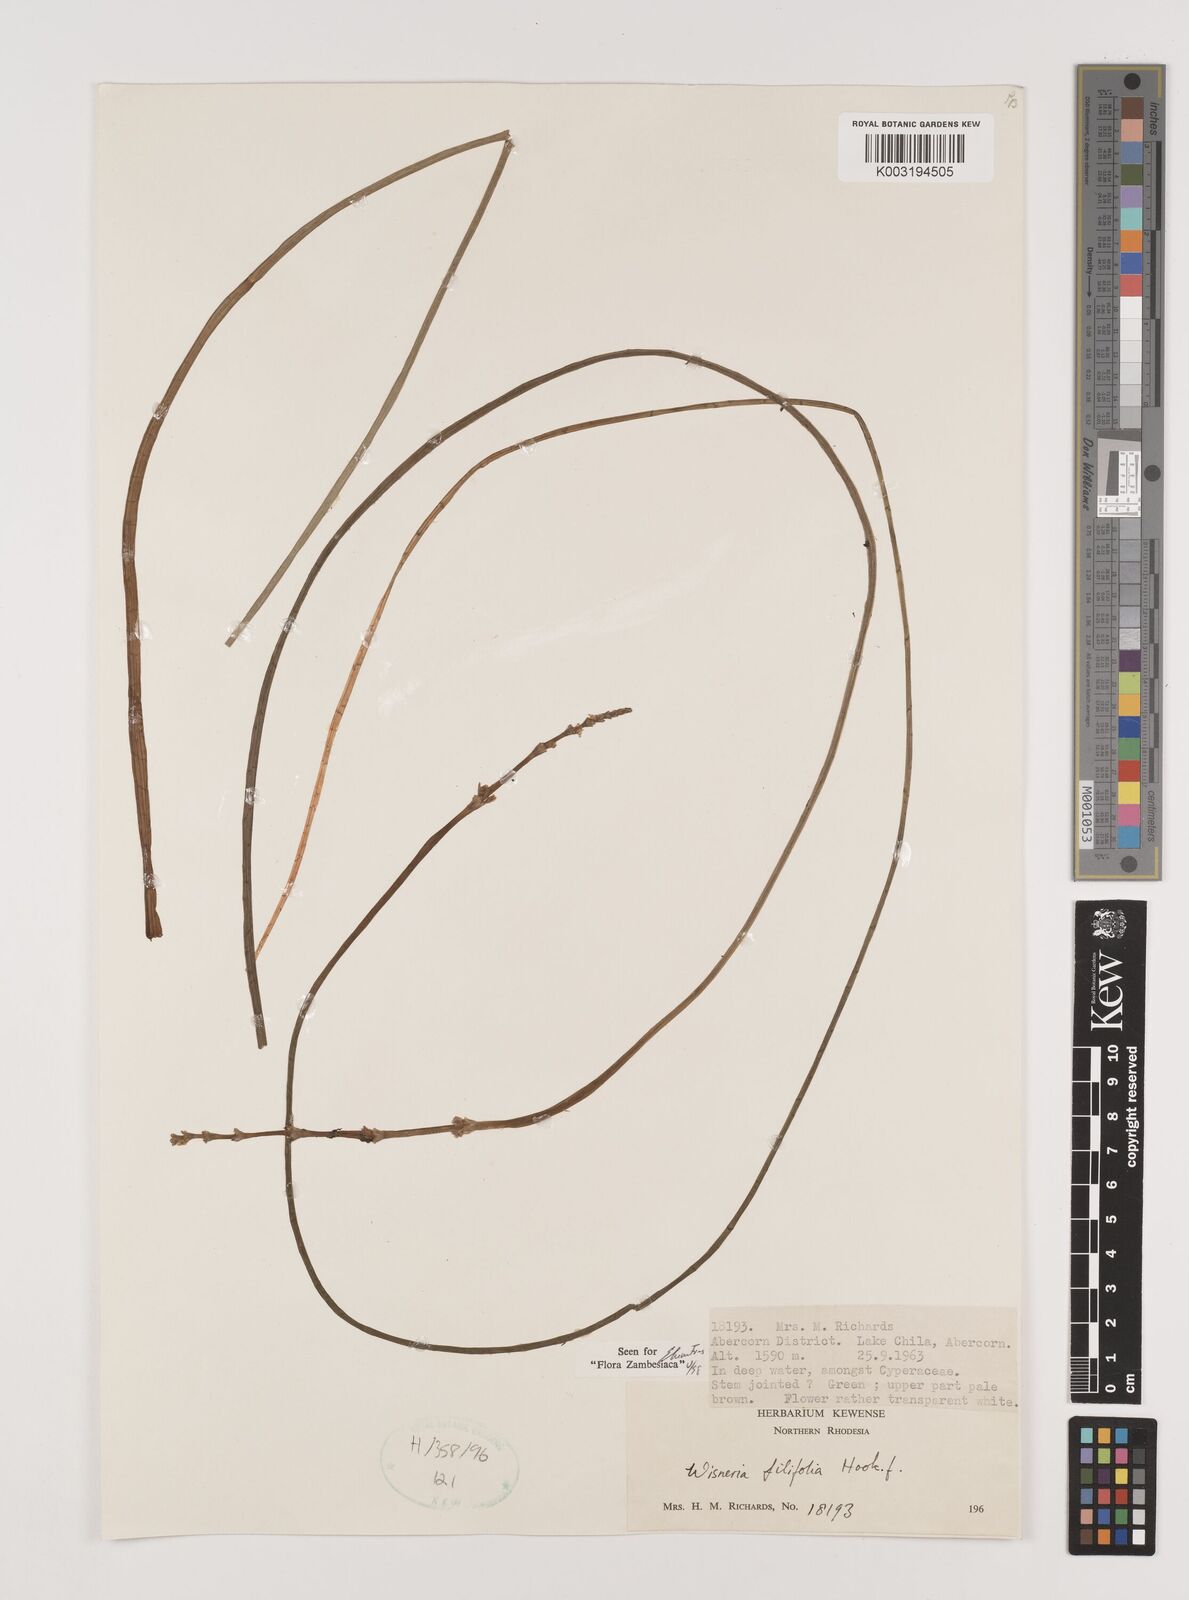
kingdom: Plantae
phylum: Tracheophyta
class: Liliopsida
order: Alismatales
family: Alismataceae
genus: Wiesneria
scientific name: Wiesneria filifolia
